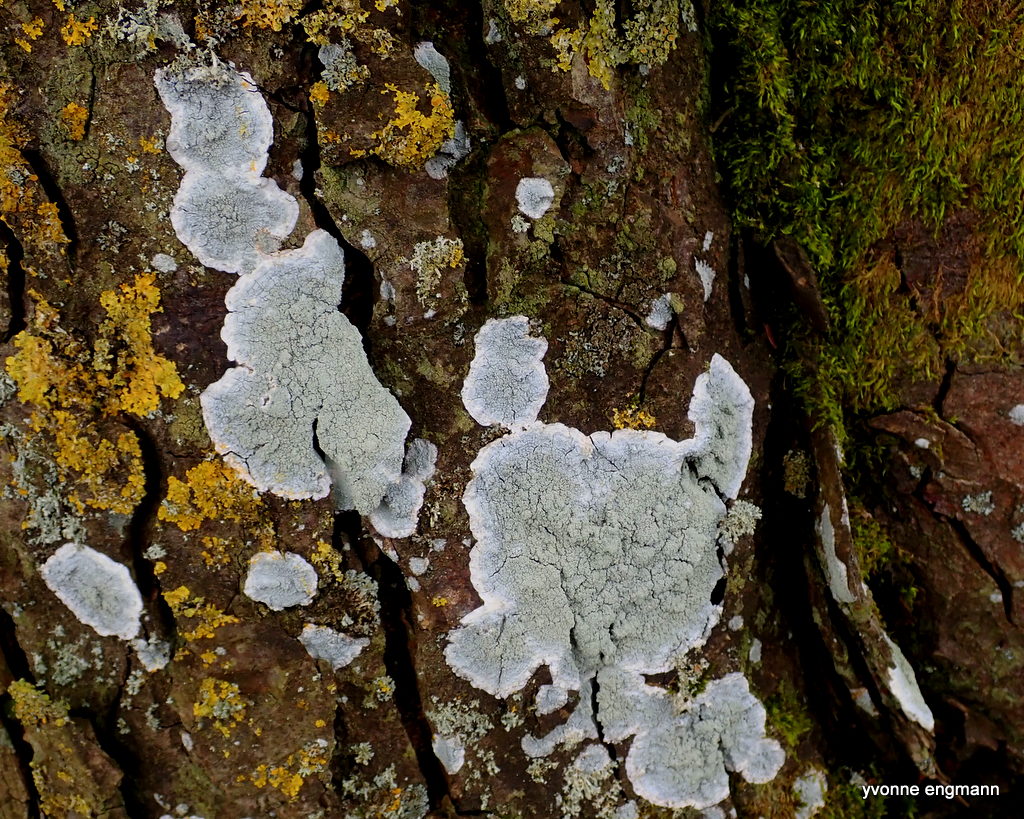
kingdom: Fungi
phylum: Ascomycota
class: Lecanoromycetes
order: Pertusariales
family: Pertusariaceae
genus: Lepra
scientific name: Lepra albescens
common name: hvidmelet prikvortelav
